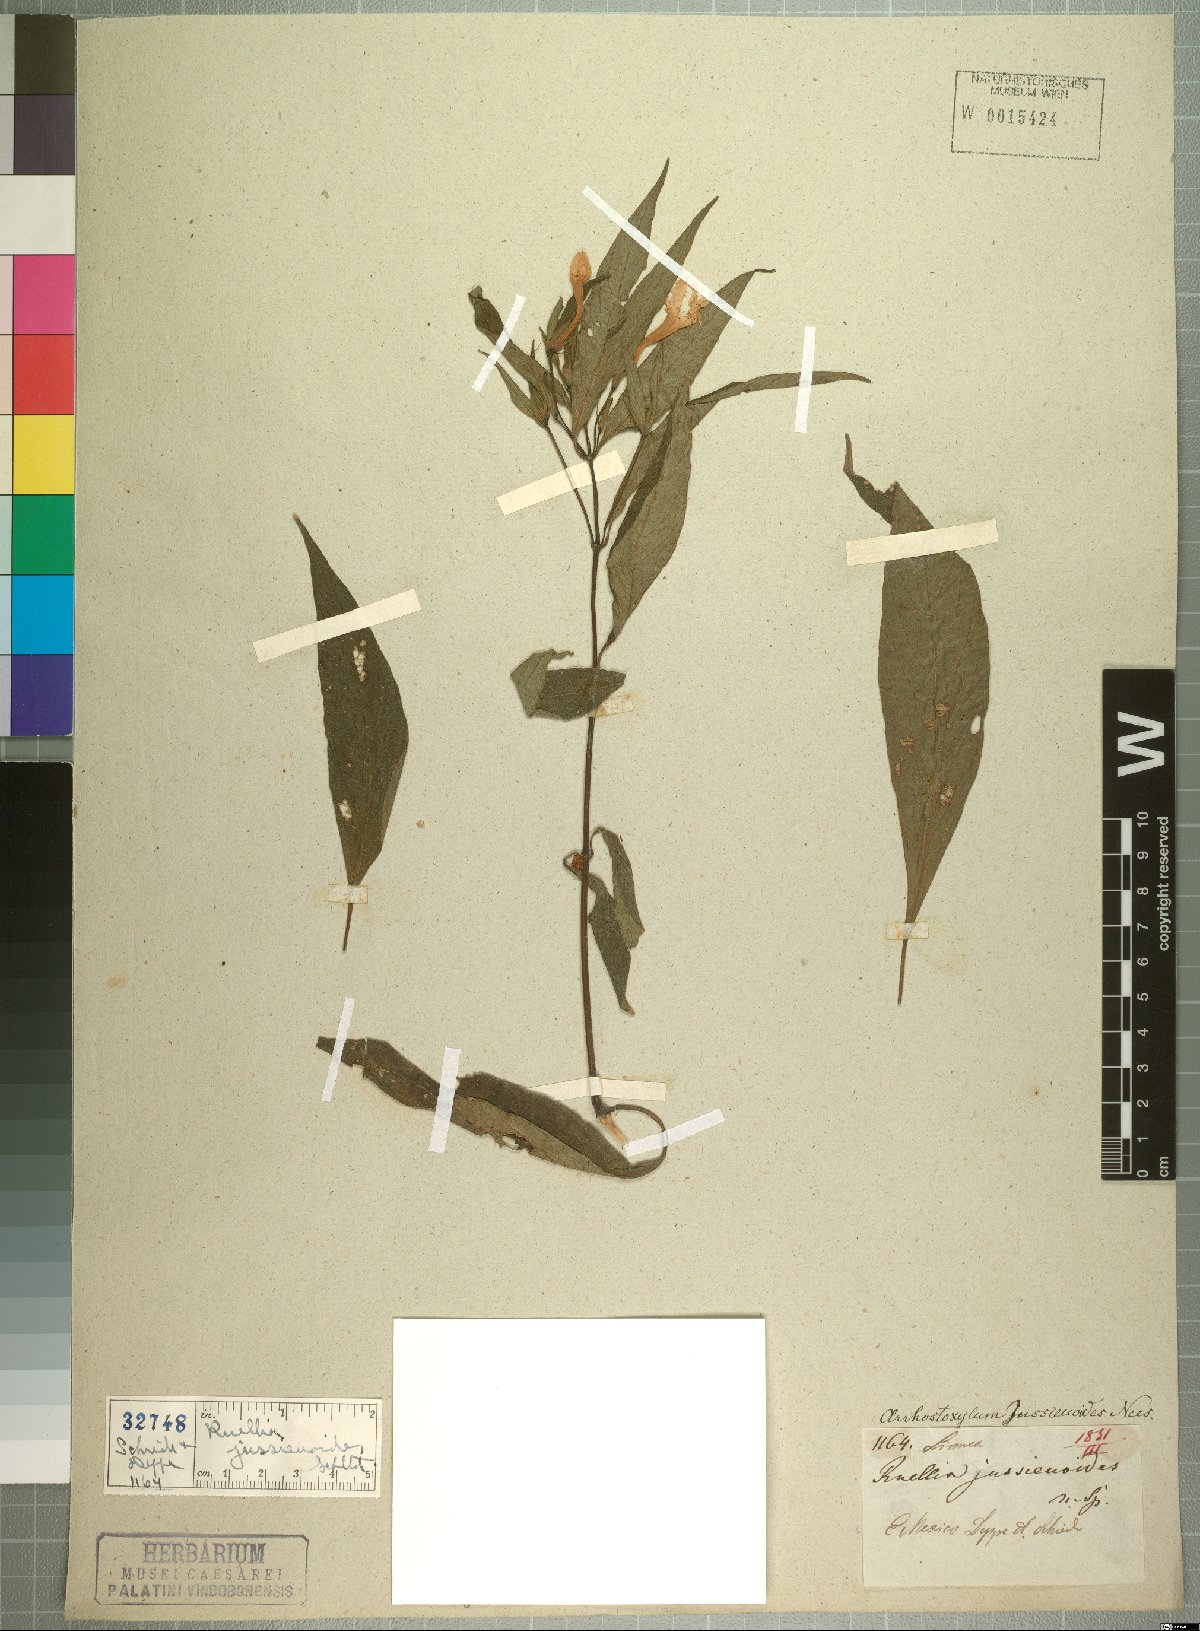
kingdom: Plantae
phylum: Tracheophyta
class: Magnoliopsida
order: Lamiales
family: Acanthaceae
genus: Ruellia
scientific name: Ruellia jussieuoides
